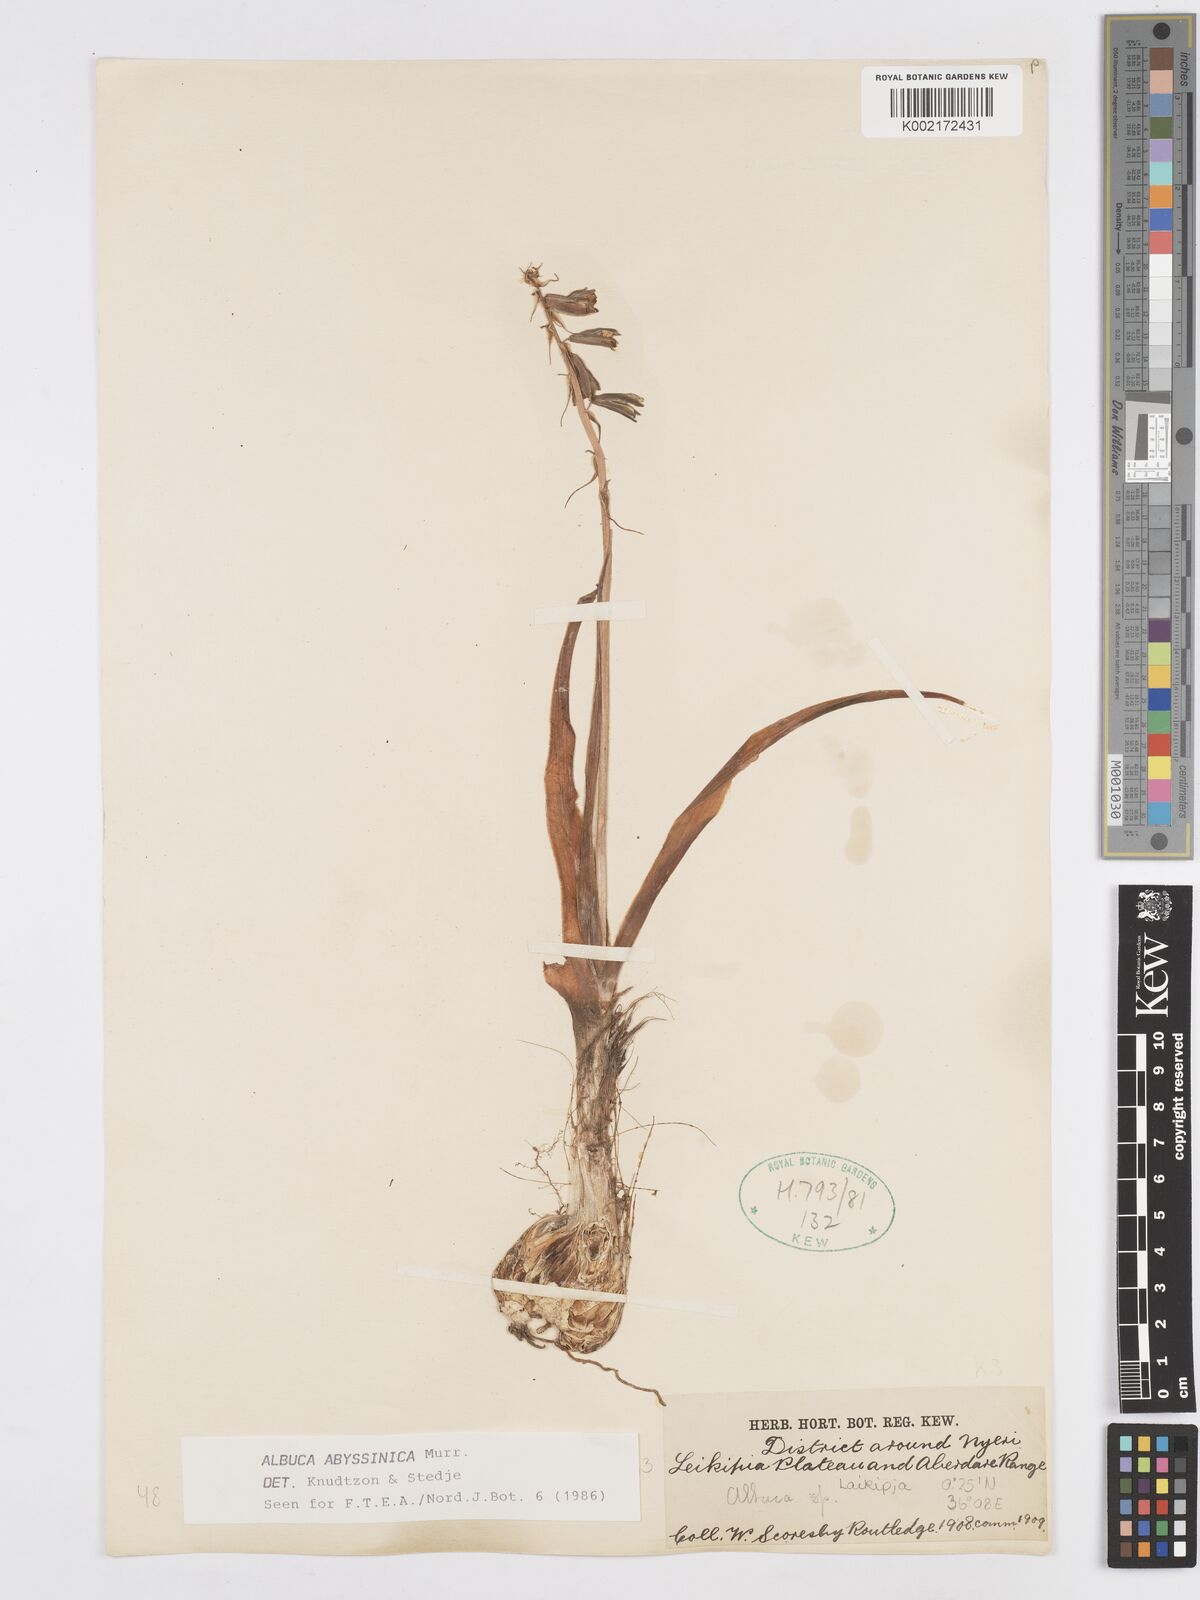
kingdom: Plantae
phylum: Tracheophyta
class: Liliopsida
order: Asparagales
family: Asparagaceae
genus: Albuca
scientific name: Albuca abyssinica
